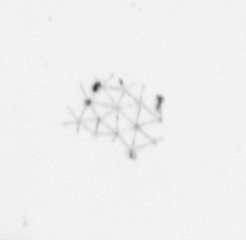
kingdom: Chromista
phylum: Ochrophyta
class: Bacillariophyceae
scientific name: Bacillariophyceae
